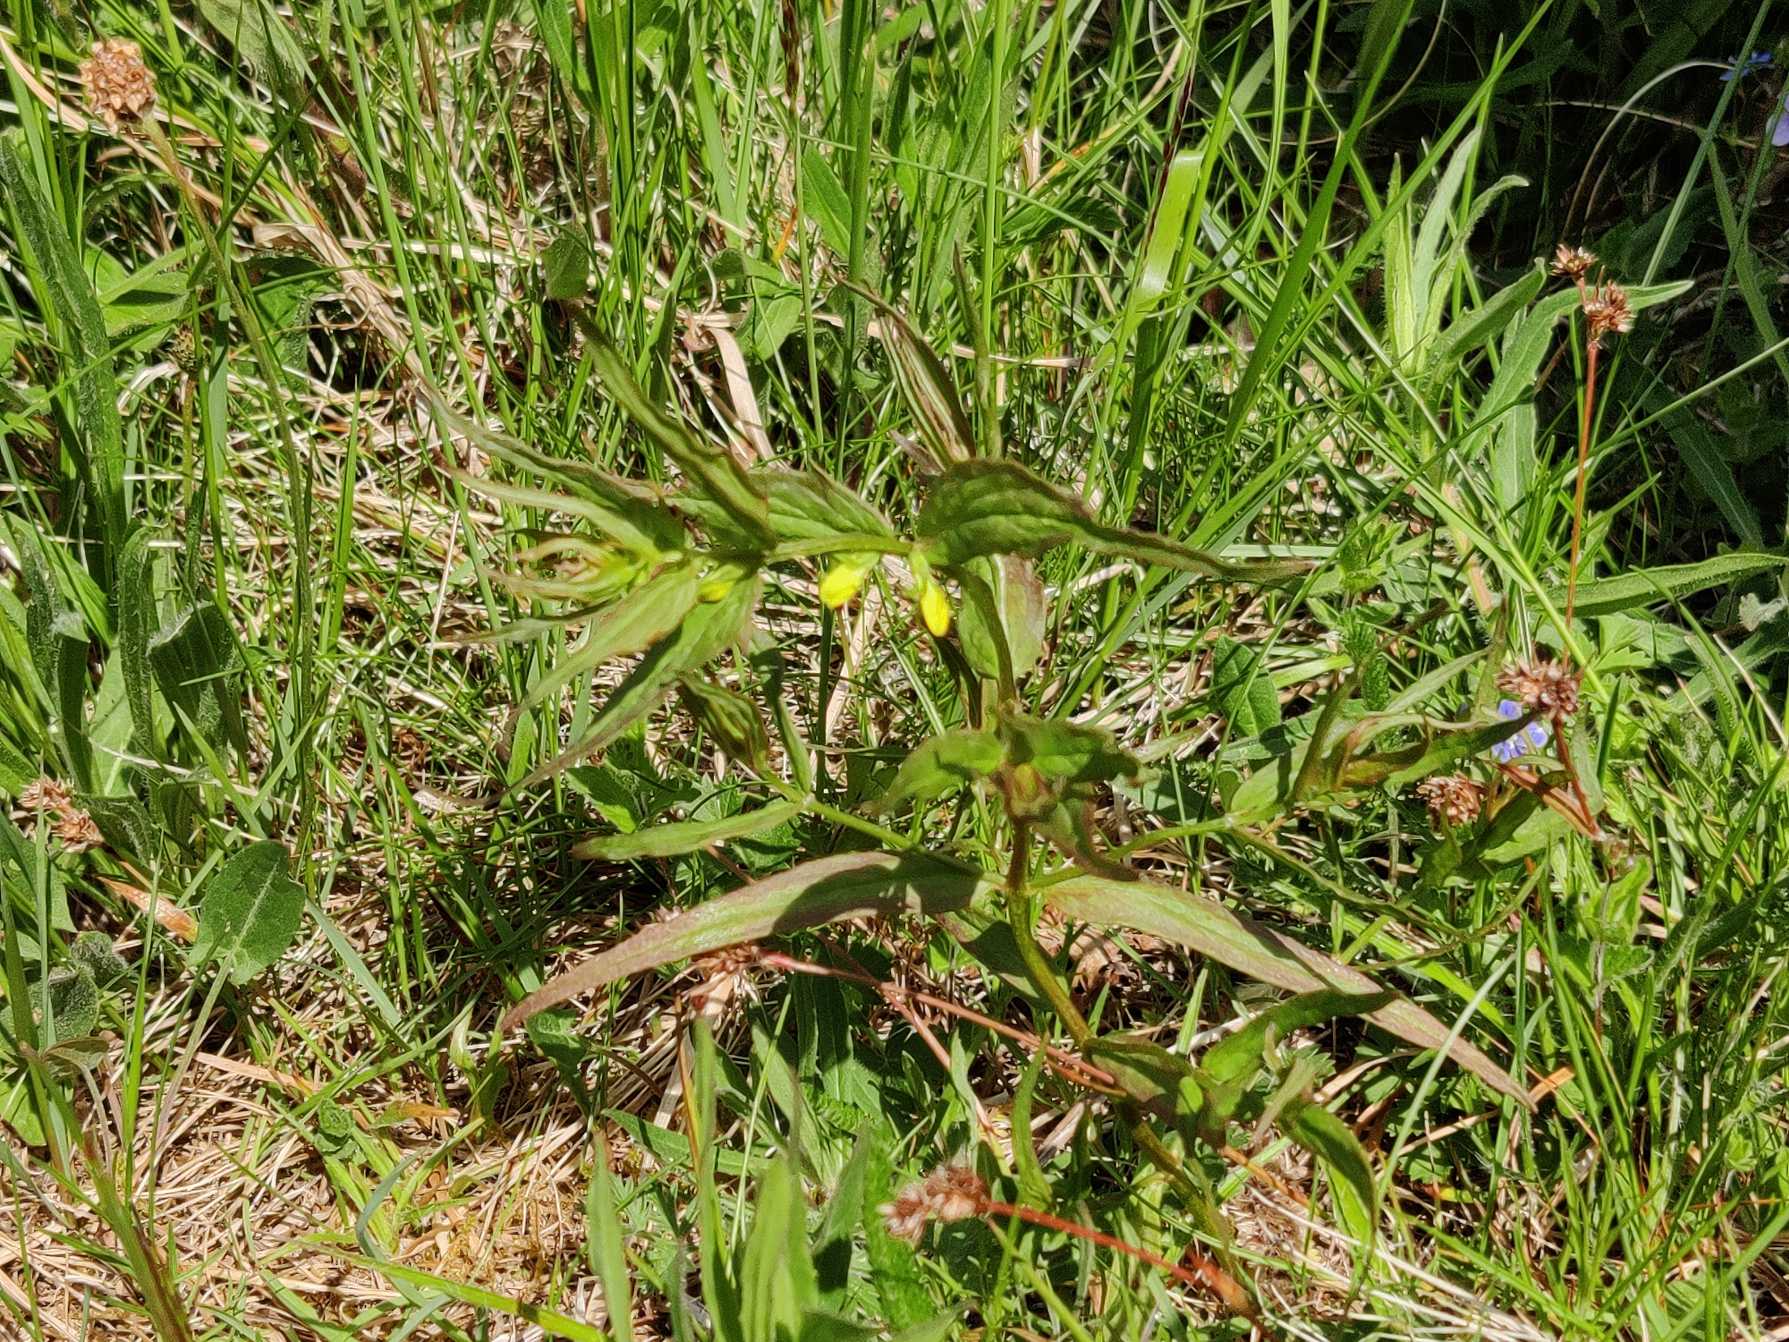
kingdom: Plantae
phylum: Tracheophyta
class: Magnoliopsida
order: Lamiales
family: Orobanchaceae
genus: Melampyrum
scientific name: Melampyrum sylvaticum
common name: Skov-kohvede
